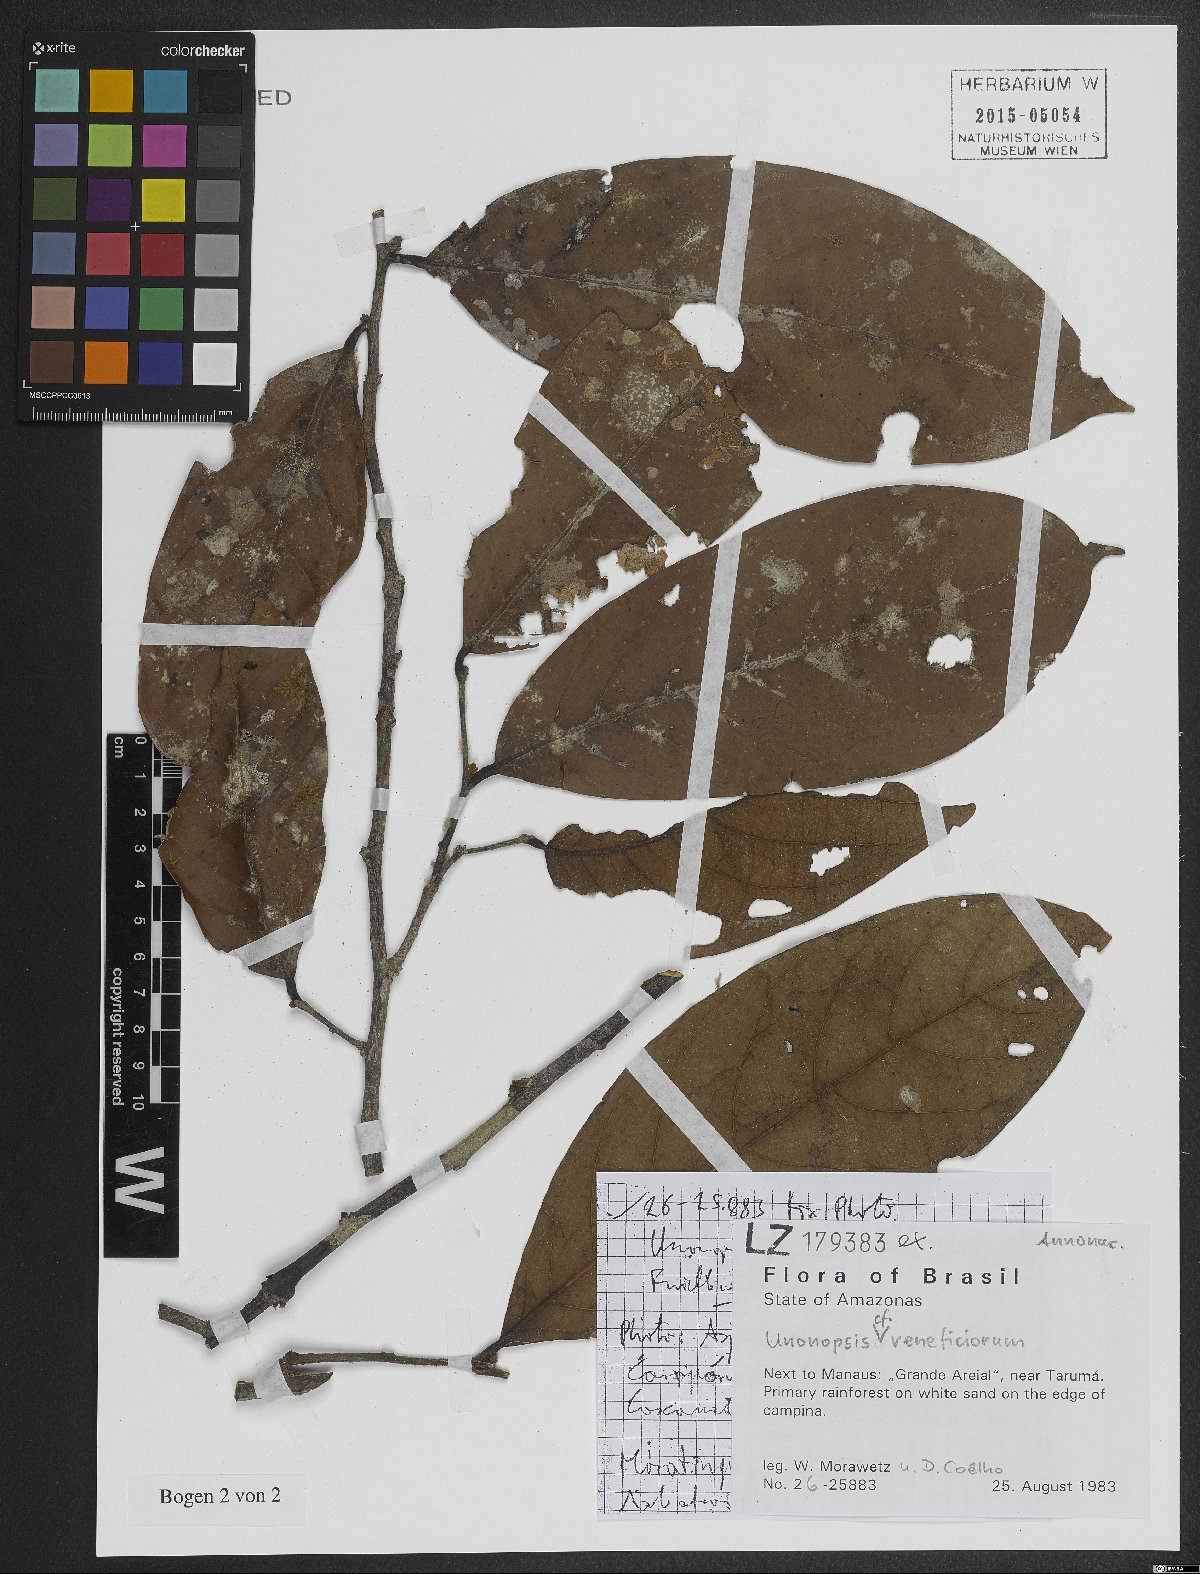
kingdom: Plantae
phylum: Tracheophyta
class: Magnoliopsida
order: Magnoliales
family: Annonaceae
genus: Unonopsis
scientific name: Unonopsis veneficiorum
